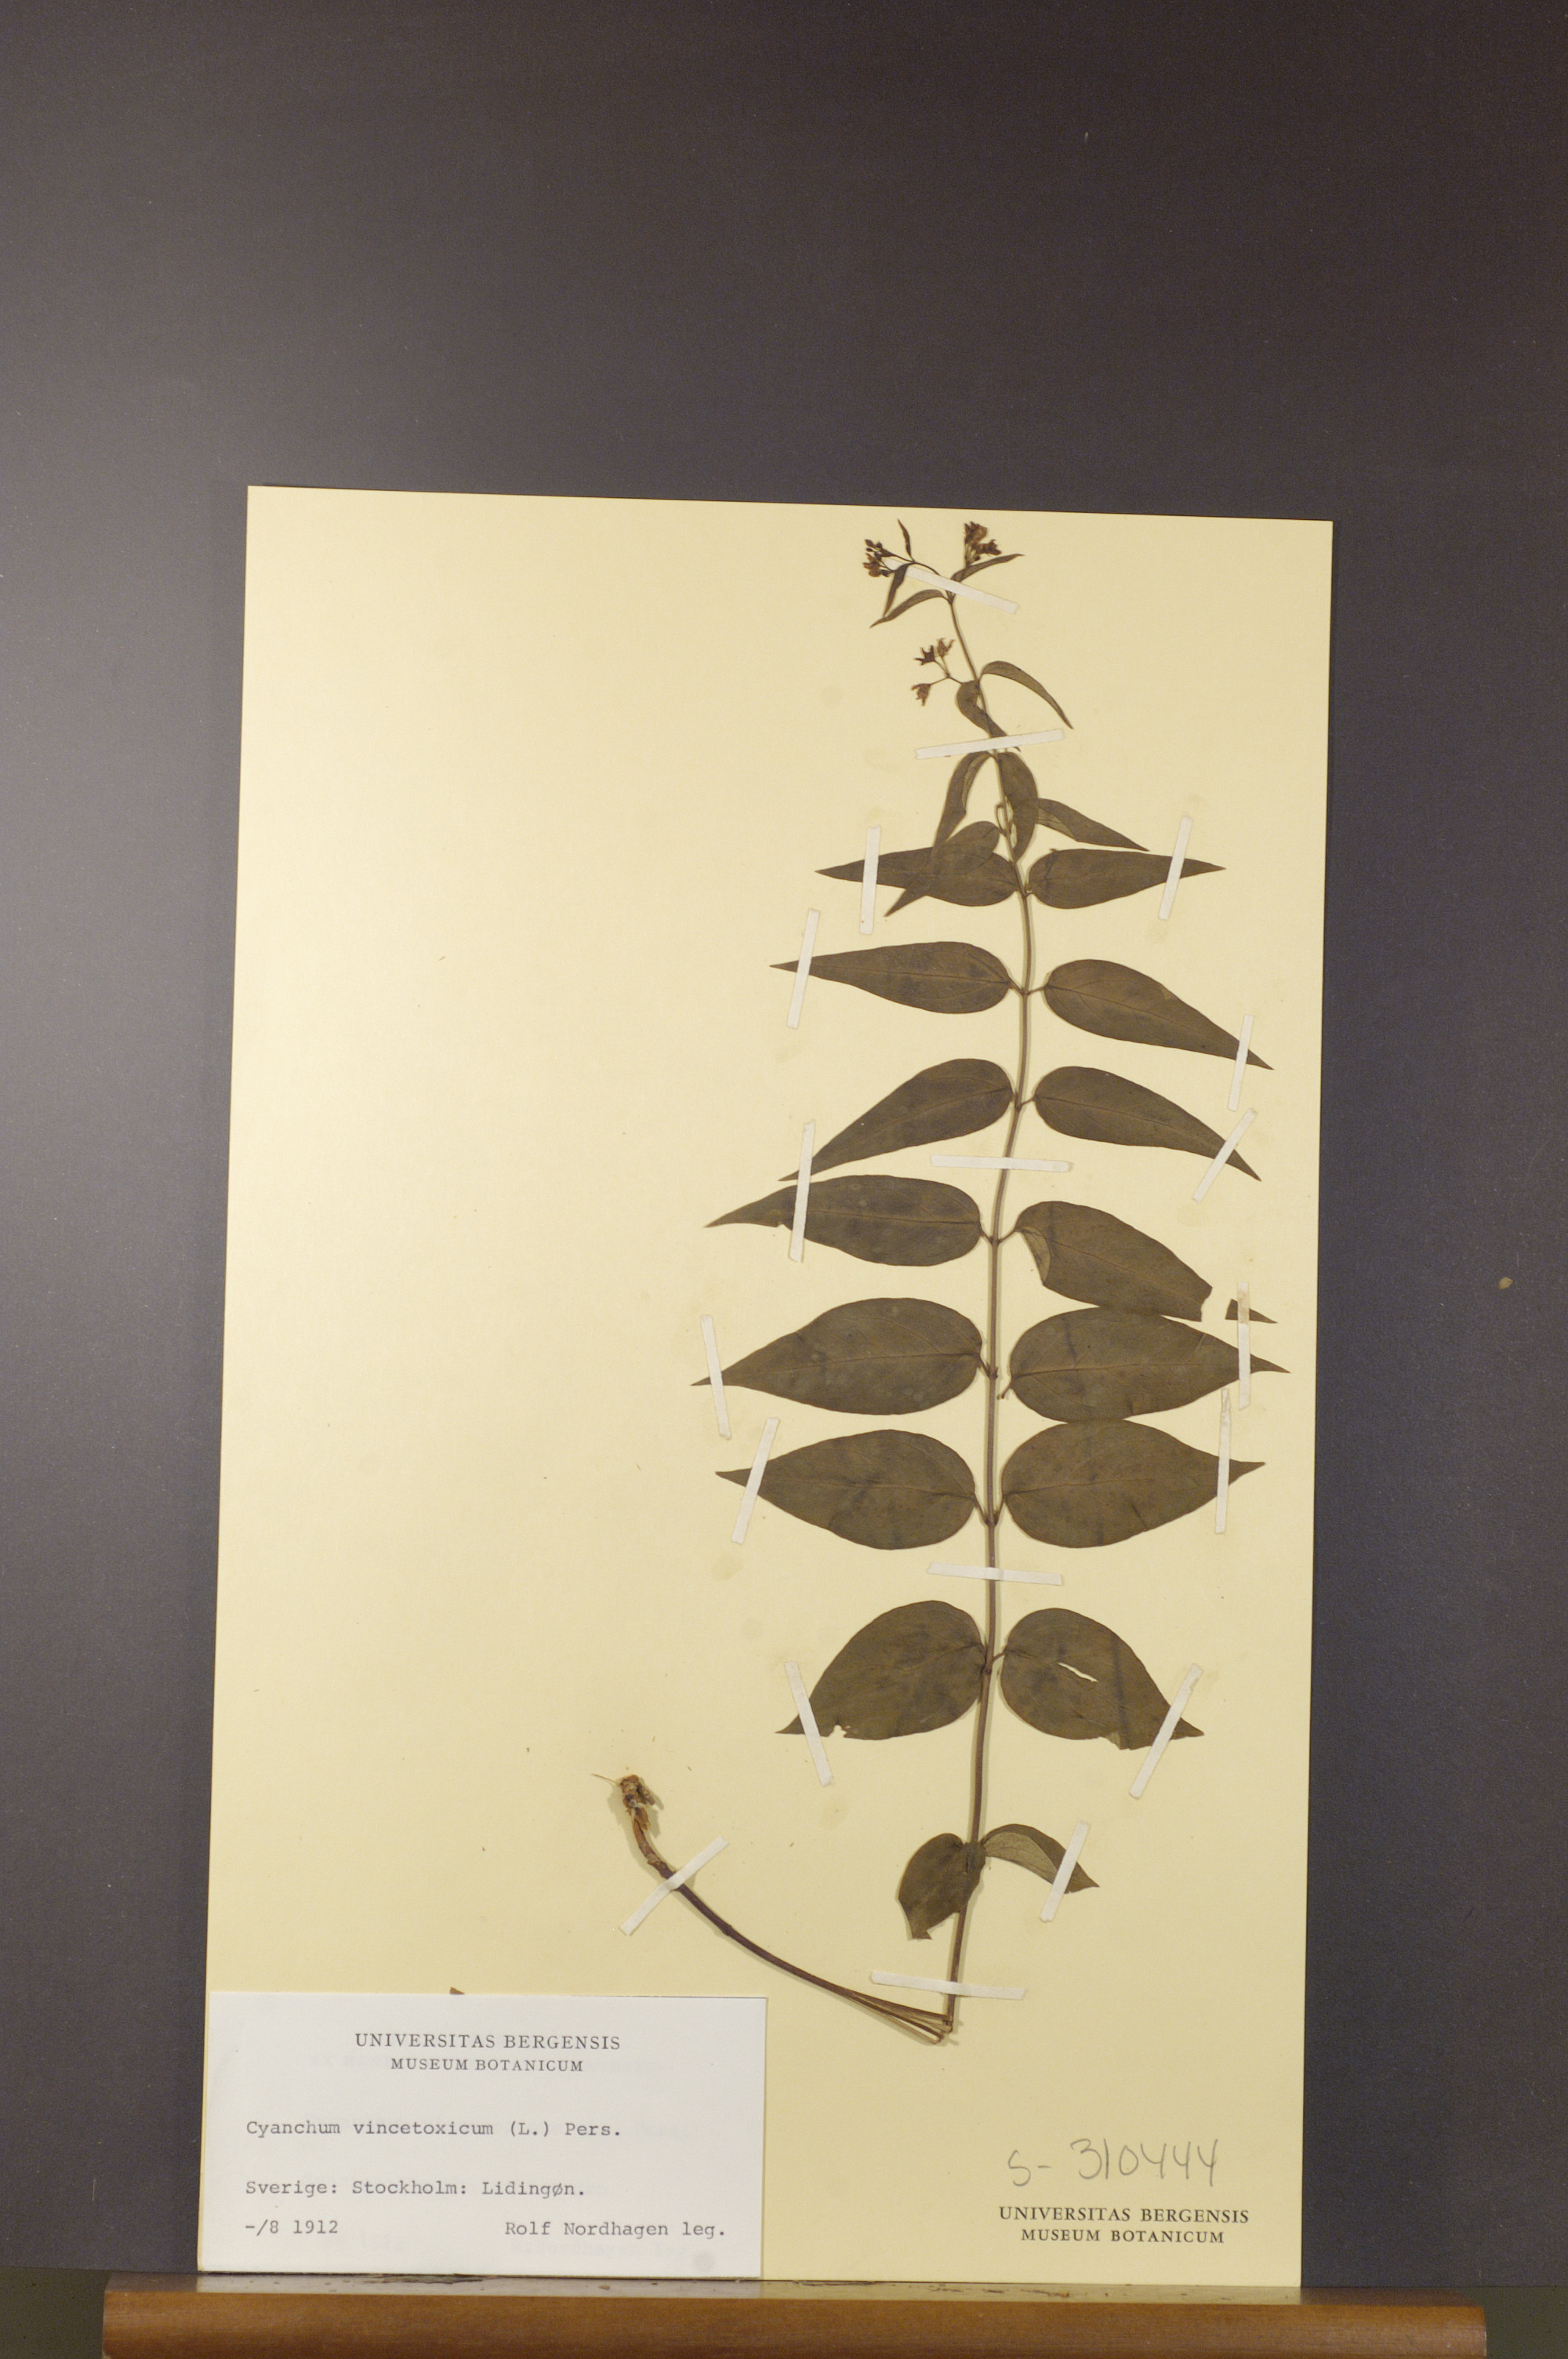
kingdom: Plantae
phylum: Tracheophyta
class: Magnoliopsida
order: Gentianales
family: Apocynaceae
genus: Vincetoxicum
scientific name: Vincetoxicum hirundinaria
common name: White swallowwort
